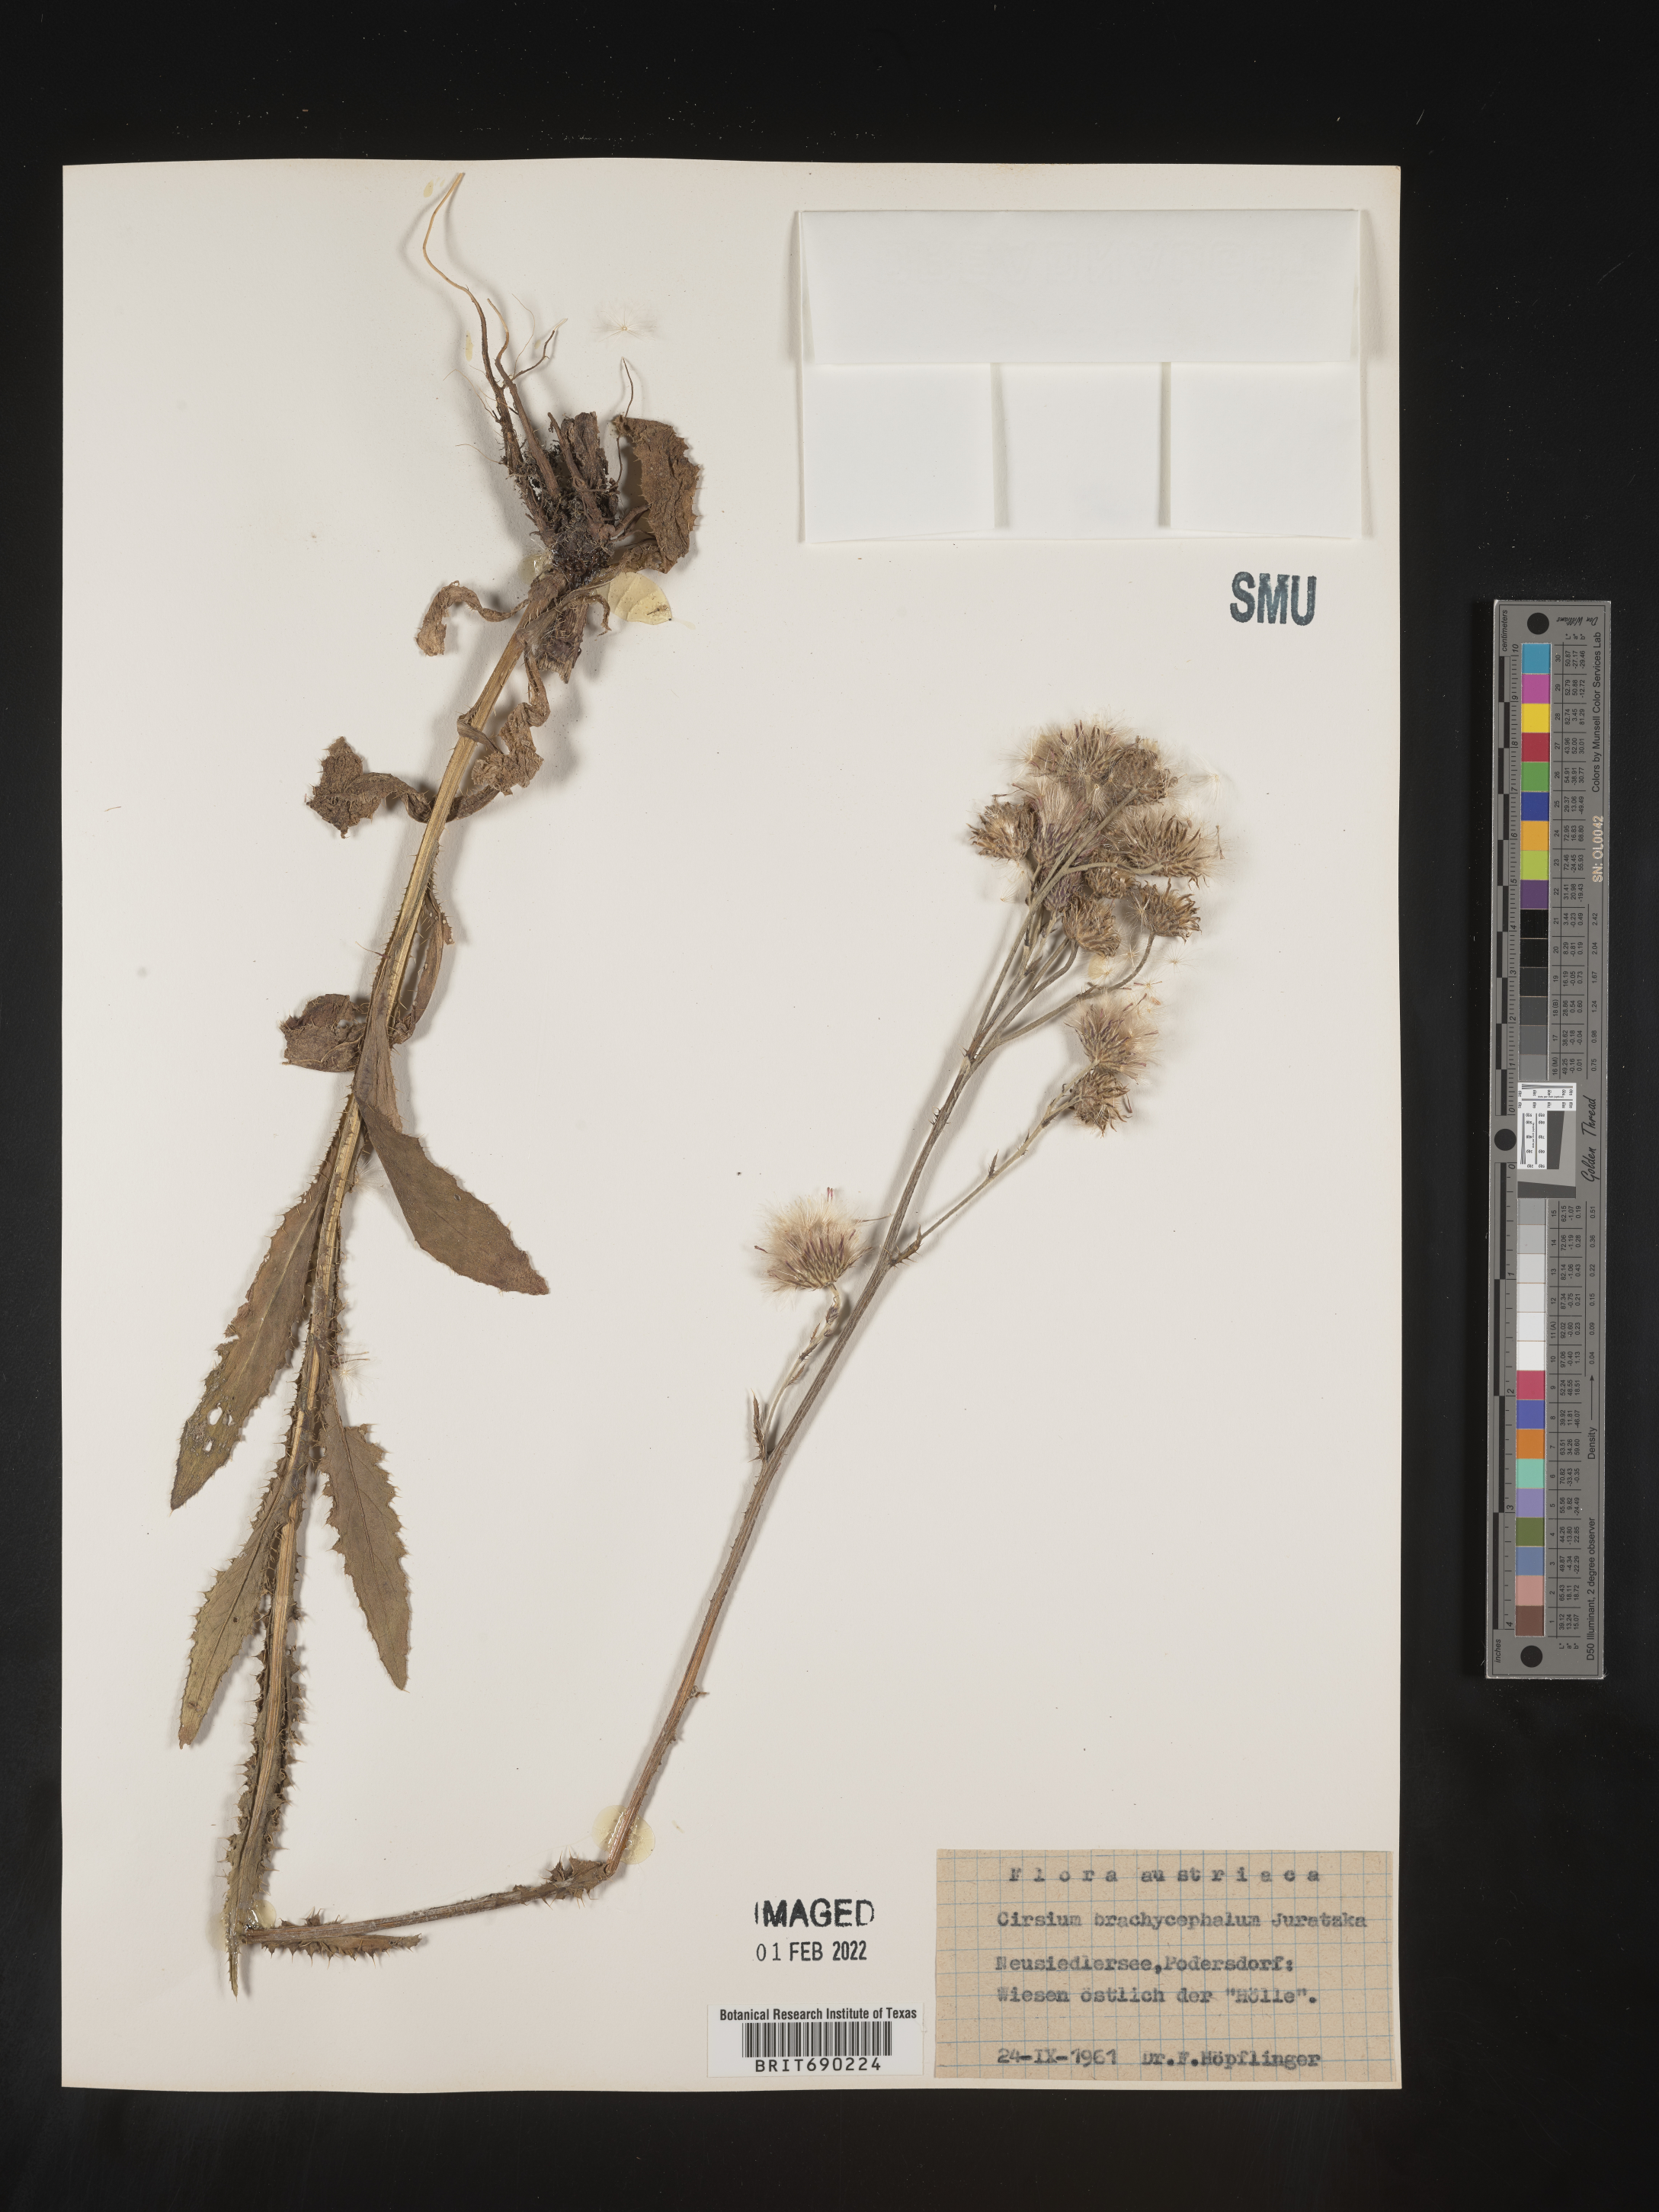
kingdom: Plantae
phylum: Tracheophyta
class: Magnoliopsida
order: Asterales
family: Asteraceae
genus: Cirsium
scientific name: Cirsium
